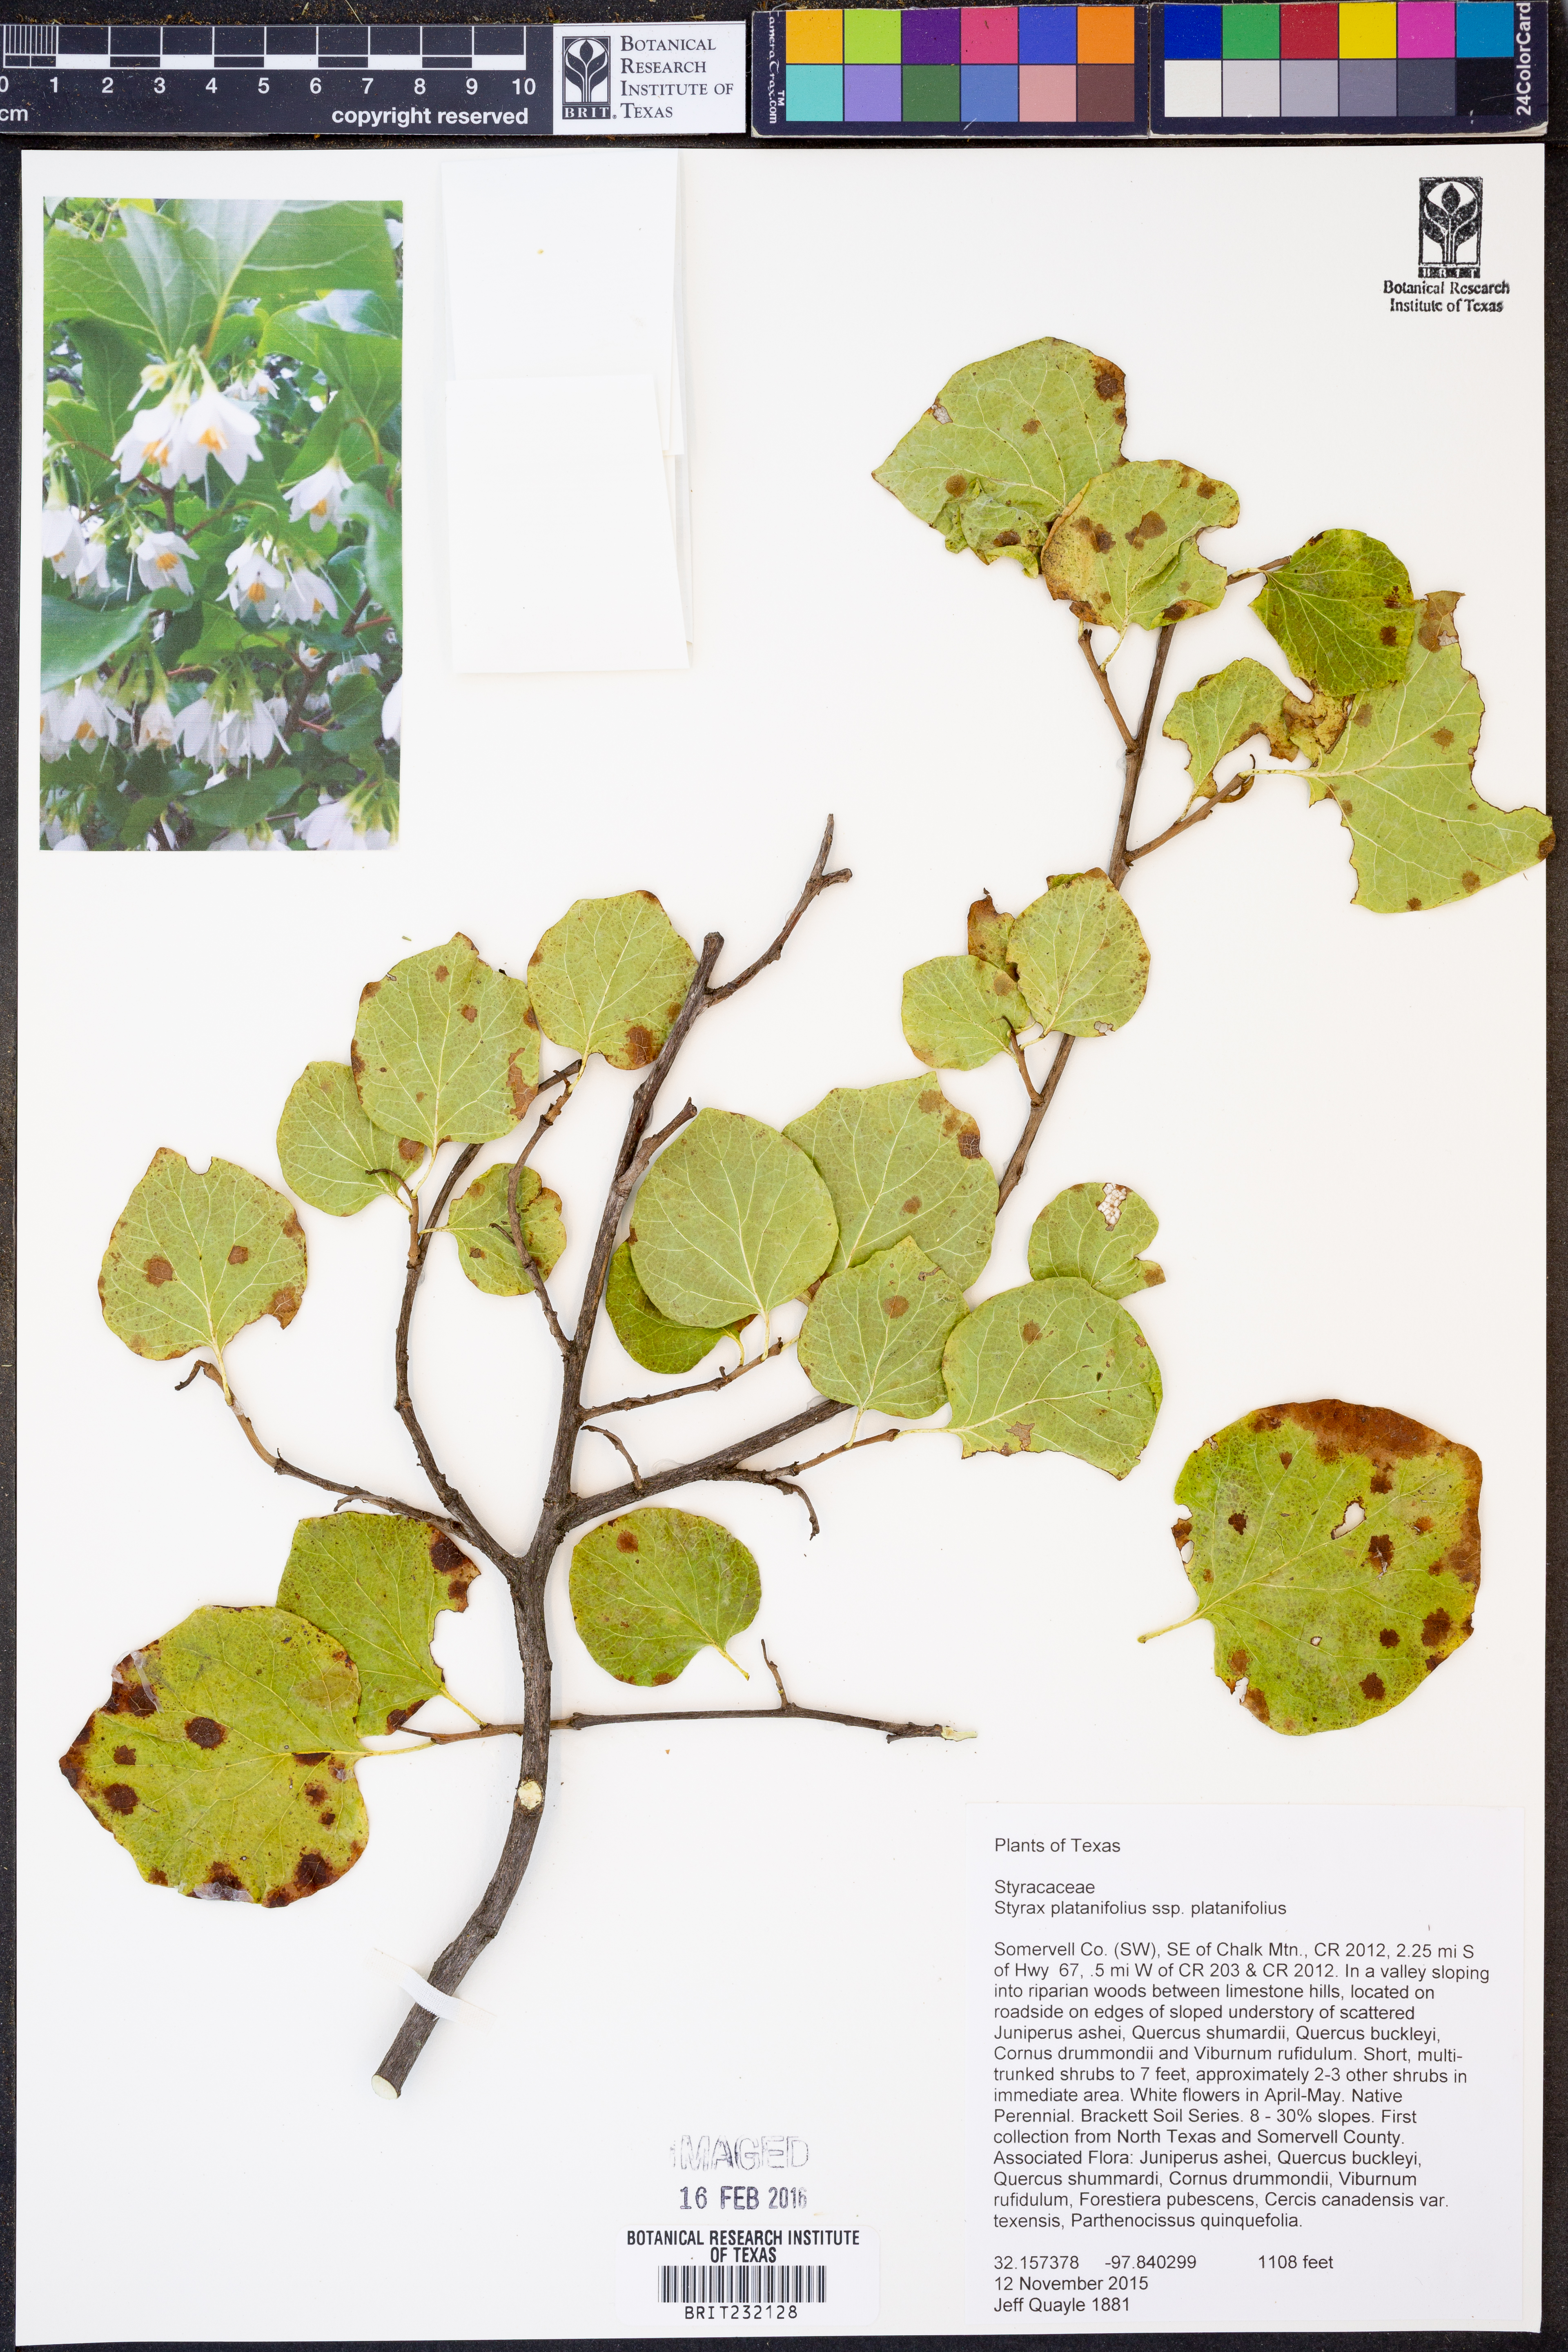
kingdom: Plantae
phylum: Tracheophyta
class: Magnoliopsida
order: Ericales
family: Styracaceae
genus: Styrax
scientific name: Styrax platanifolius
